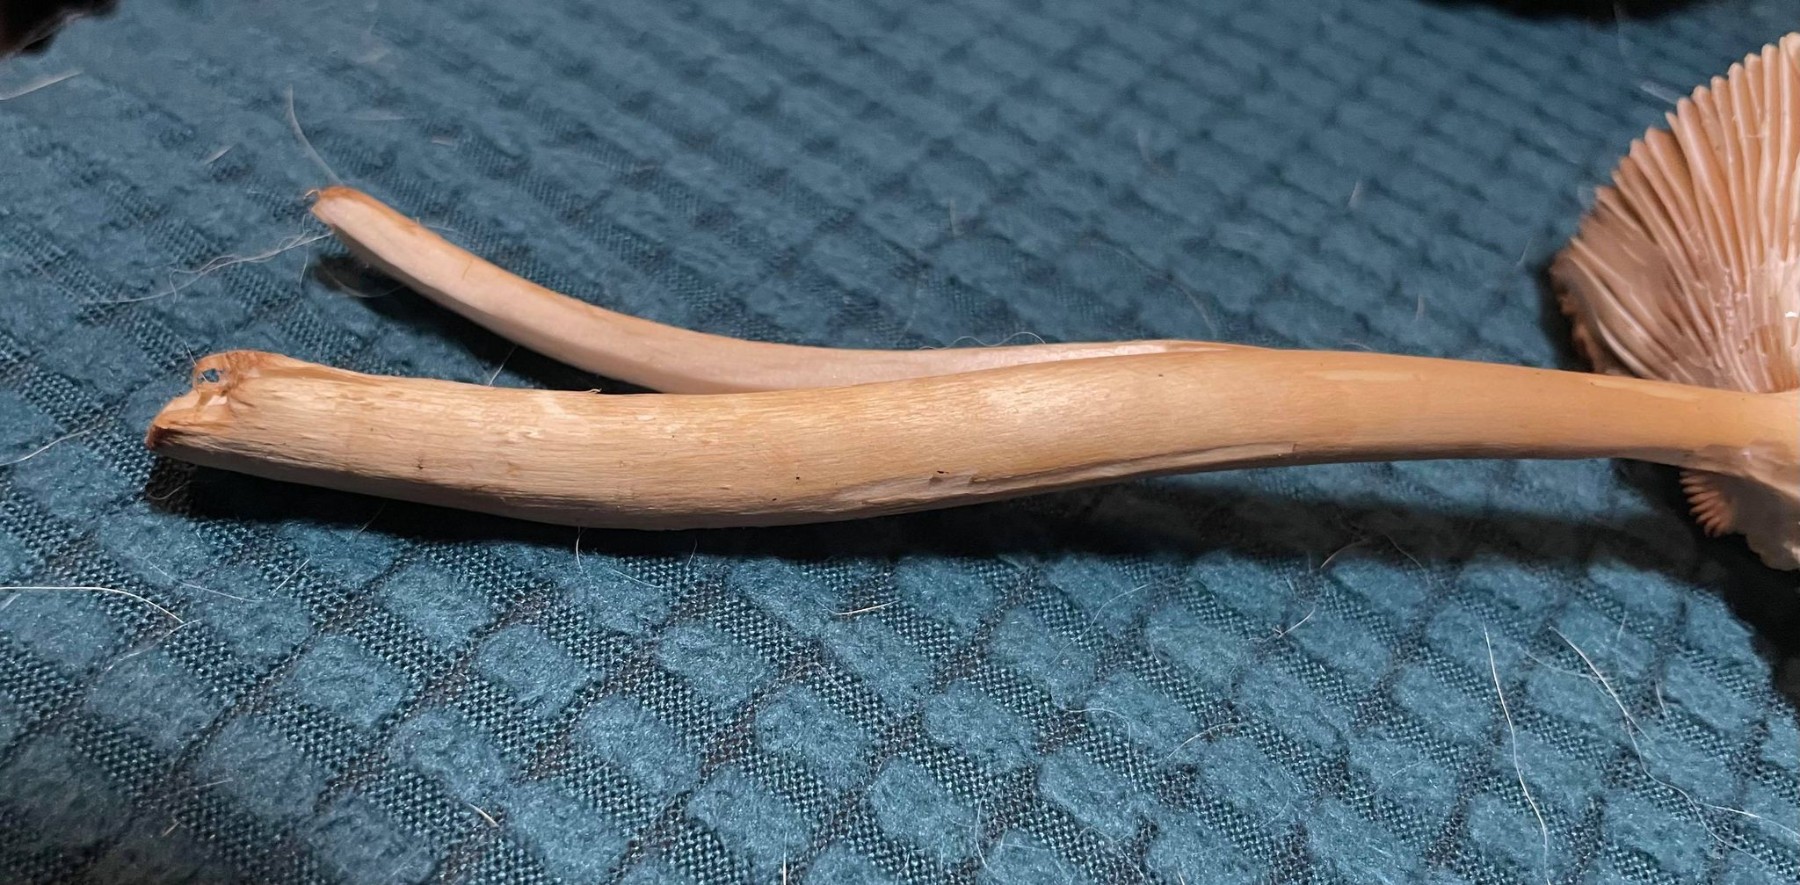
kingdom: Fungi
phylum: Basidiomycota
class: Agaricomycetes
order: Agaricales
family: Amanitaceae
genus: Amanita
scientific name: Amanita fulva
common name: brun kam-fluesvamp
